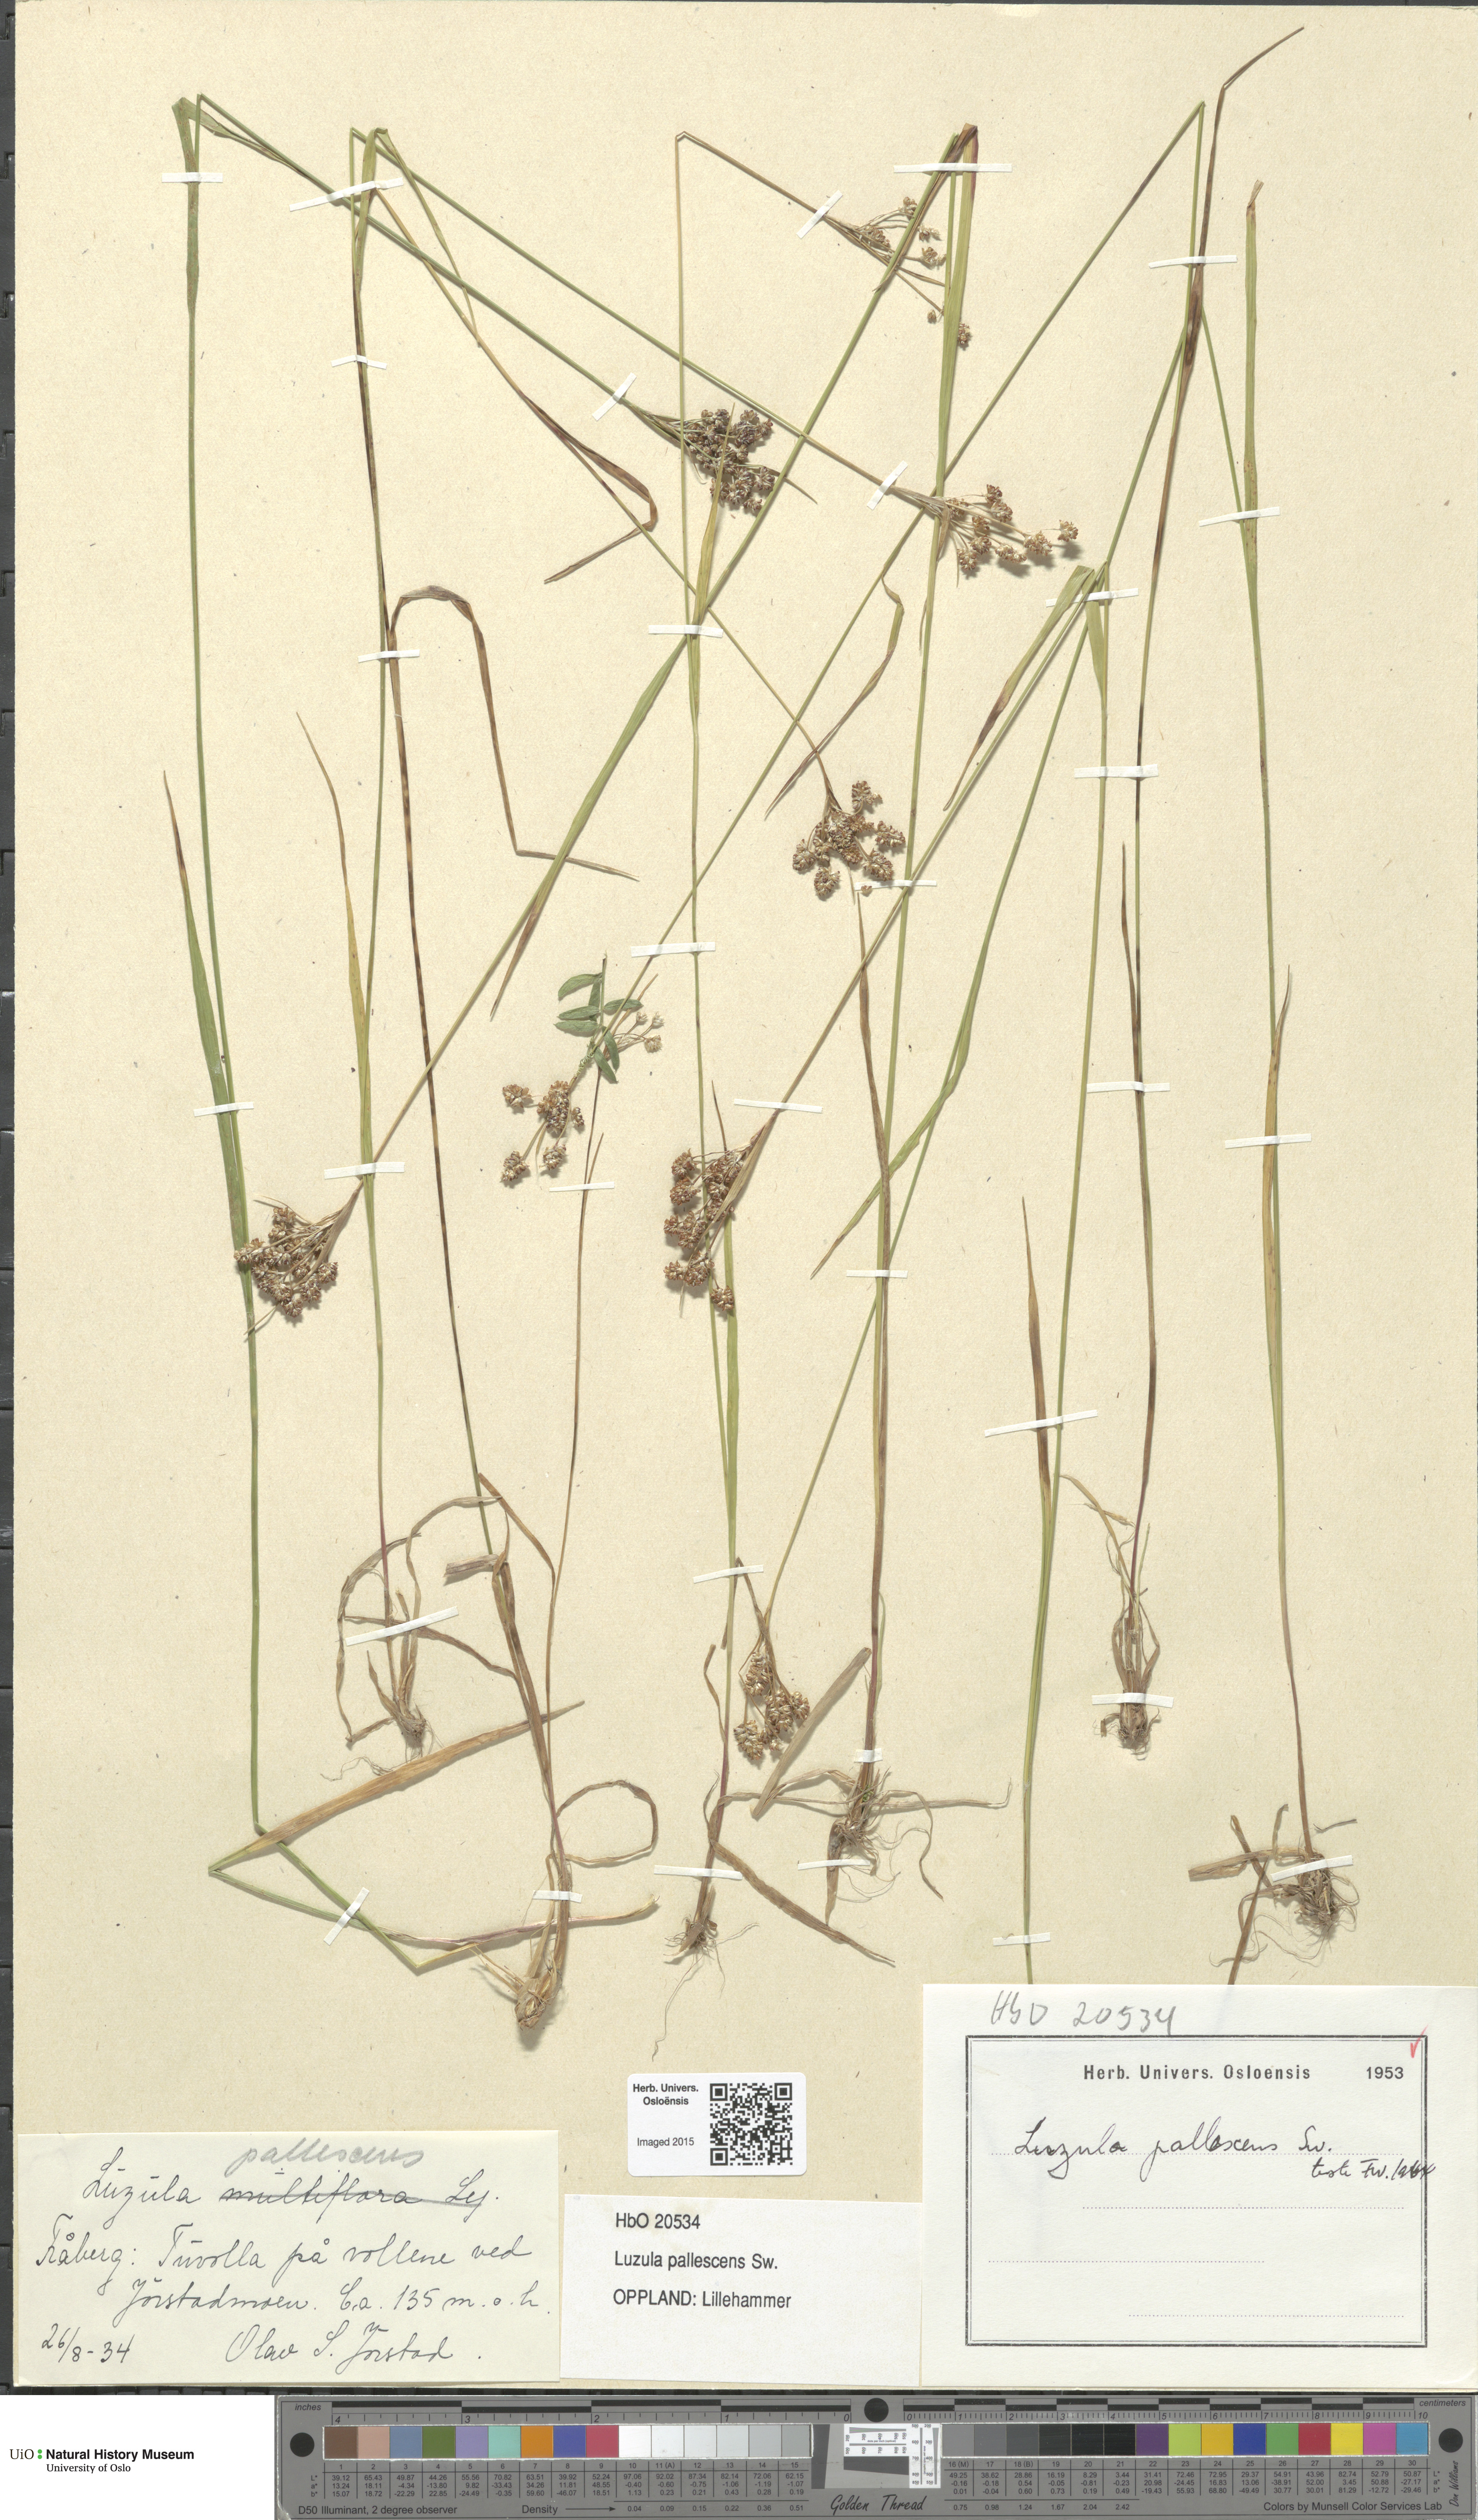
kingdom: Plantae
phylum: Tracheophyta
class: Liliopsida
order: Poales
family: Juncaceae
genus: Luzula
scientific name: Luzula pallescens
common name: Fen wood-rush
